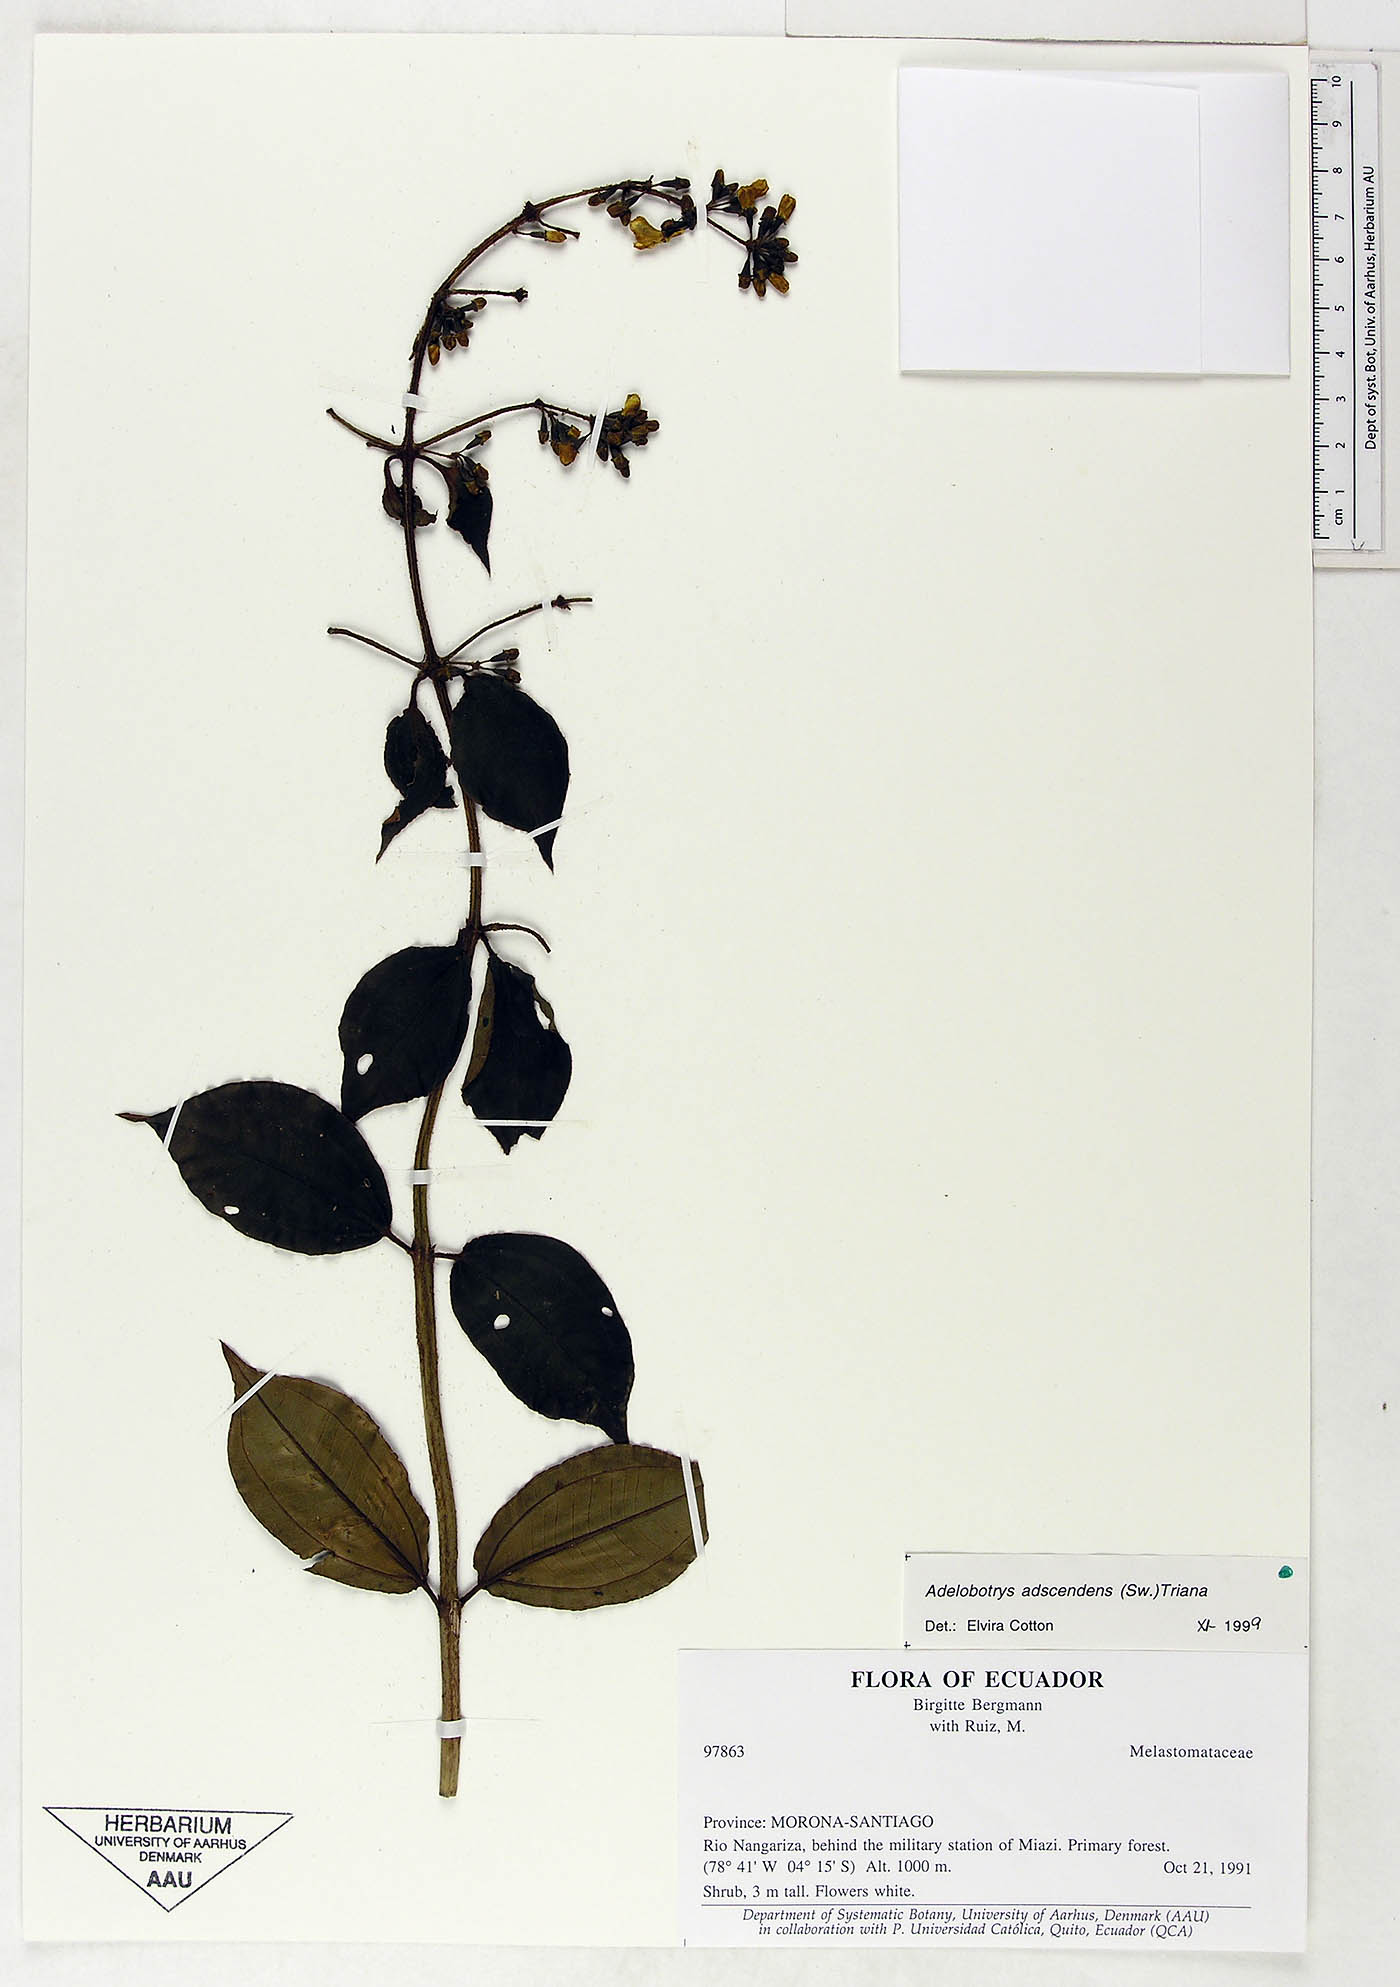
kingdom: Plantae
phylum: Tracheophyta
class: Magnoliopsida
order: Myrtales
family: Melastomataceae
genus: Adelobotrys
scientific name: Adelobotrys adscendens
